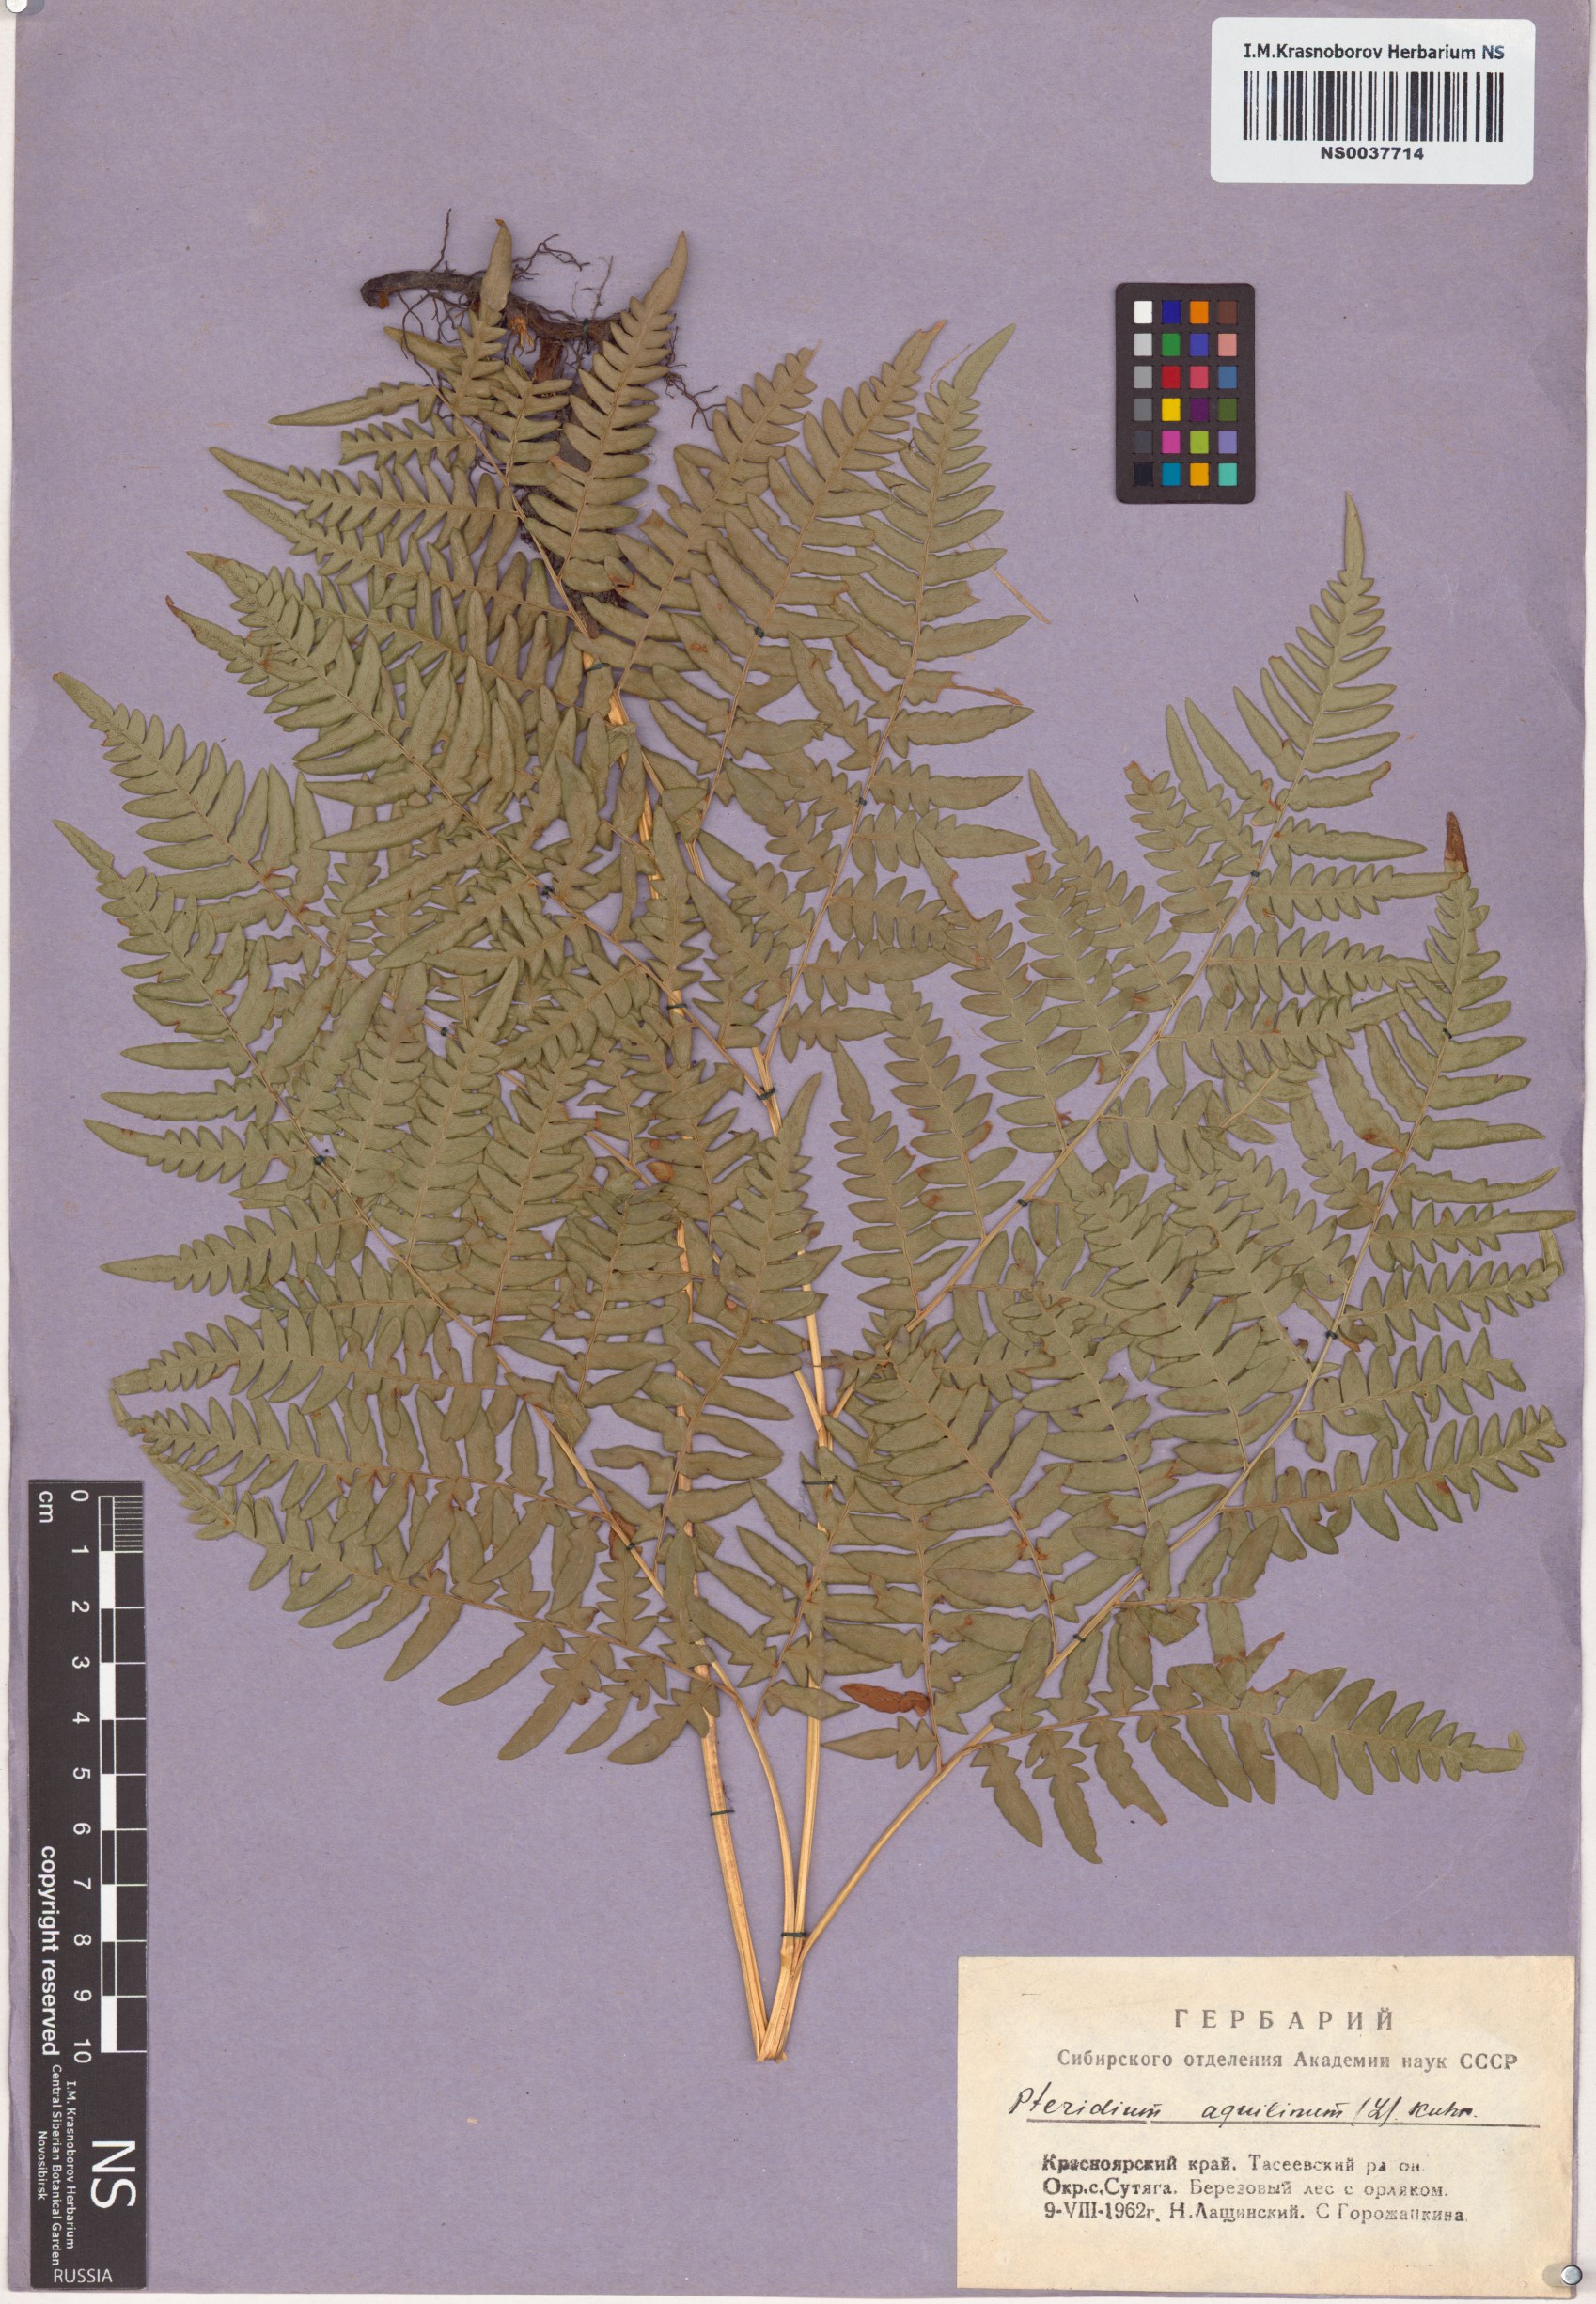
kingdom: Plantae
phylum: Tracheophyta
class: Polypodiopsida
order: Polypodiales
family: Dennstaedtiaceae
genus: Pteridium
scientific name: Pteridium aquilinum
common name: Bracken
